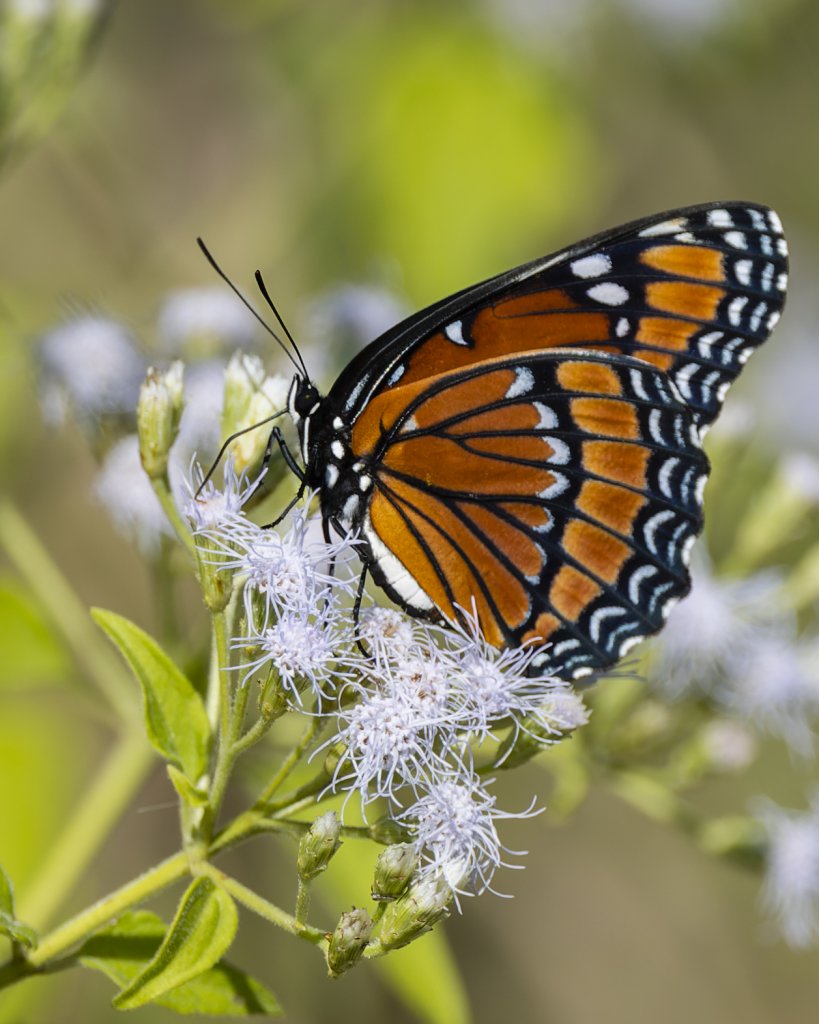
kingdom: Animalia
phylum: Arthropoda
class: Insecta
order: Lepidoptera
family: Nymphalidae
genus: Limenitis
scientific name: Limenitis archippus
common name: Viceroy
